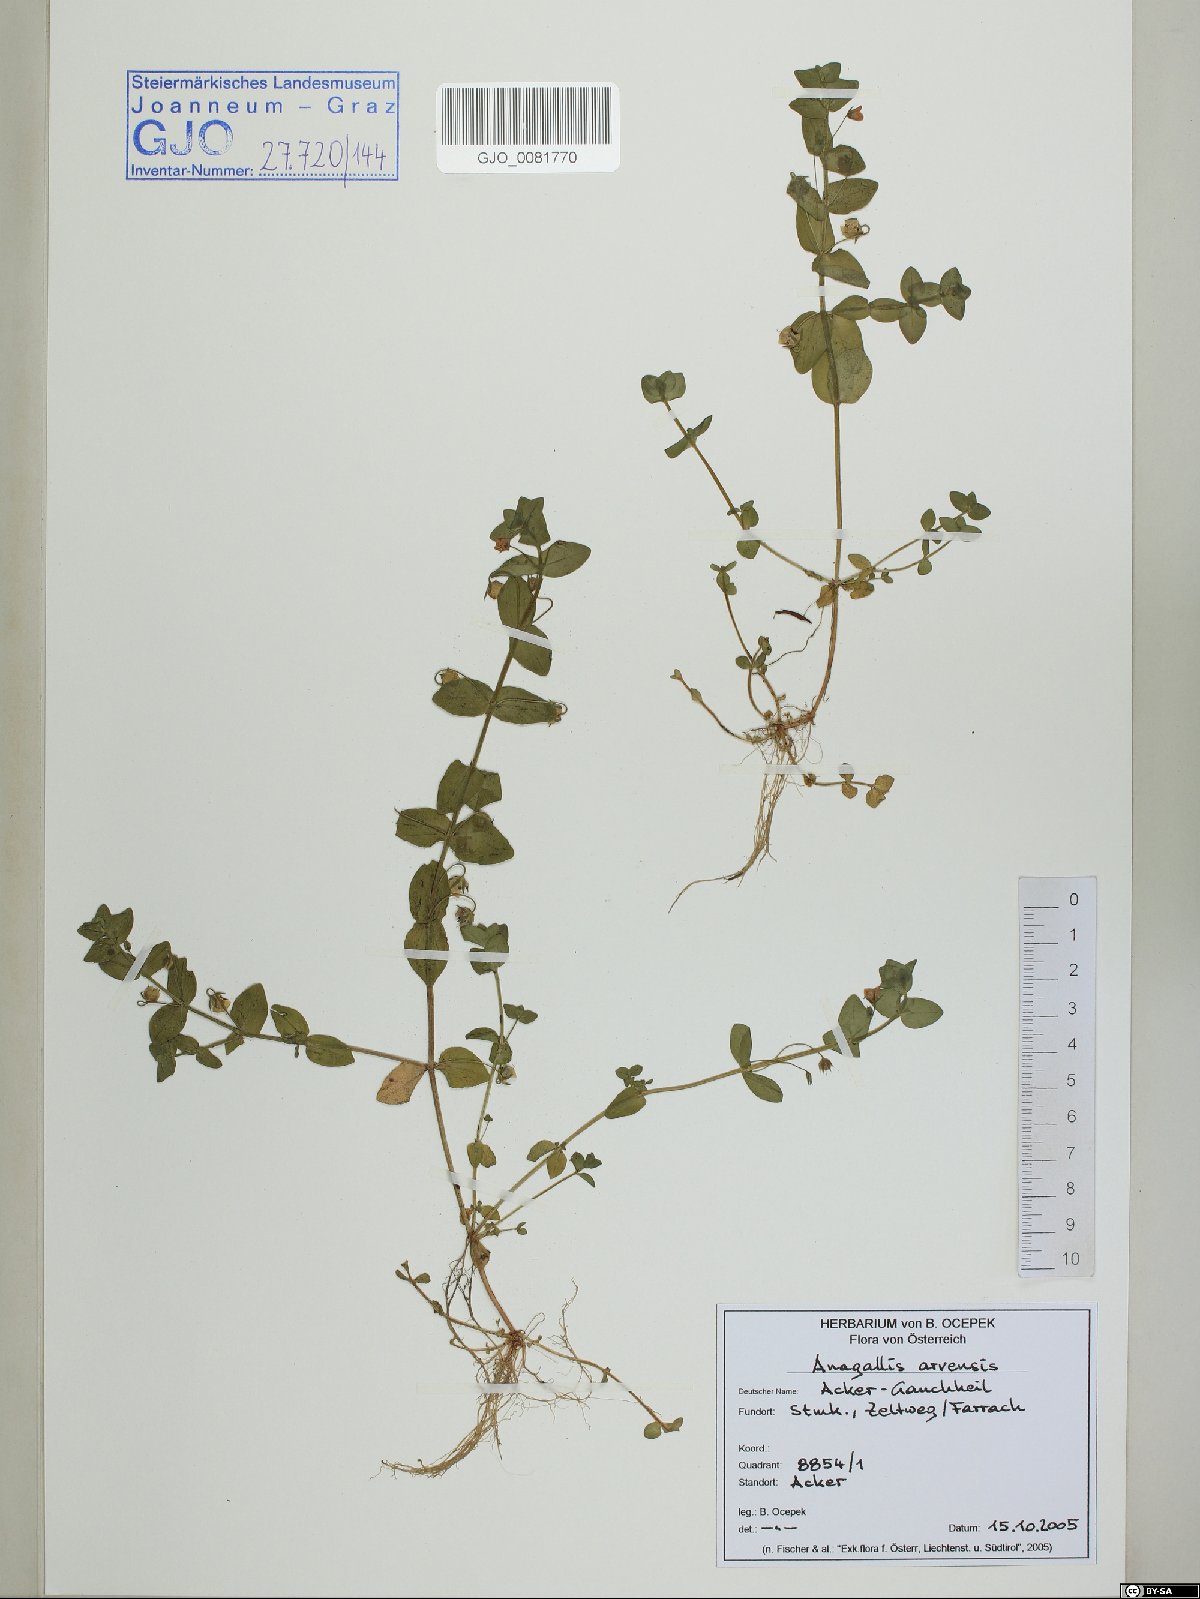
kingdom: Plantae
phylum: Tracheophyta
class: Magnoliopsida
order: Ericales
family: Primulaceae
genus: Lysimachia
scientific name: Lysimachia arvensis
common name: Scarlet pimpernel
